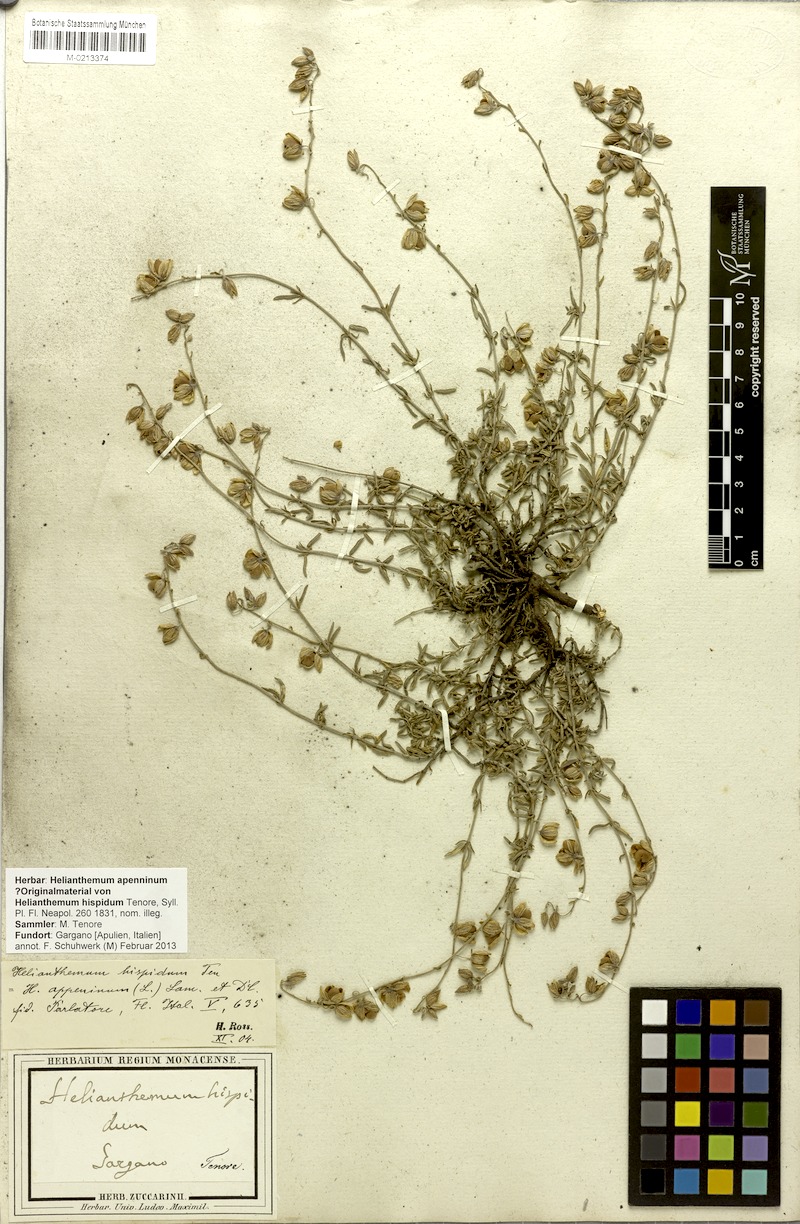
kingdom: Plantae
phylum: Tracheophyta
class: Magnoliopsida
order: Malvales
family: Cistaceae
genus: Helianthemum
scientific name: Helianthemum apenninum
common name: White rock-rose
